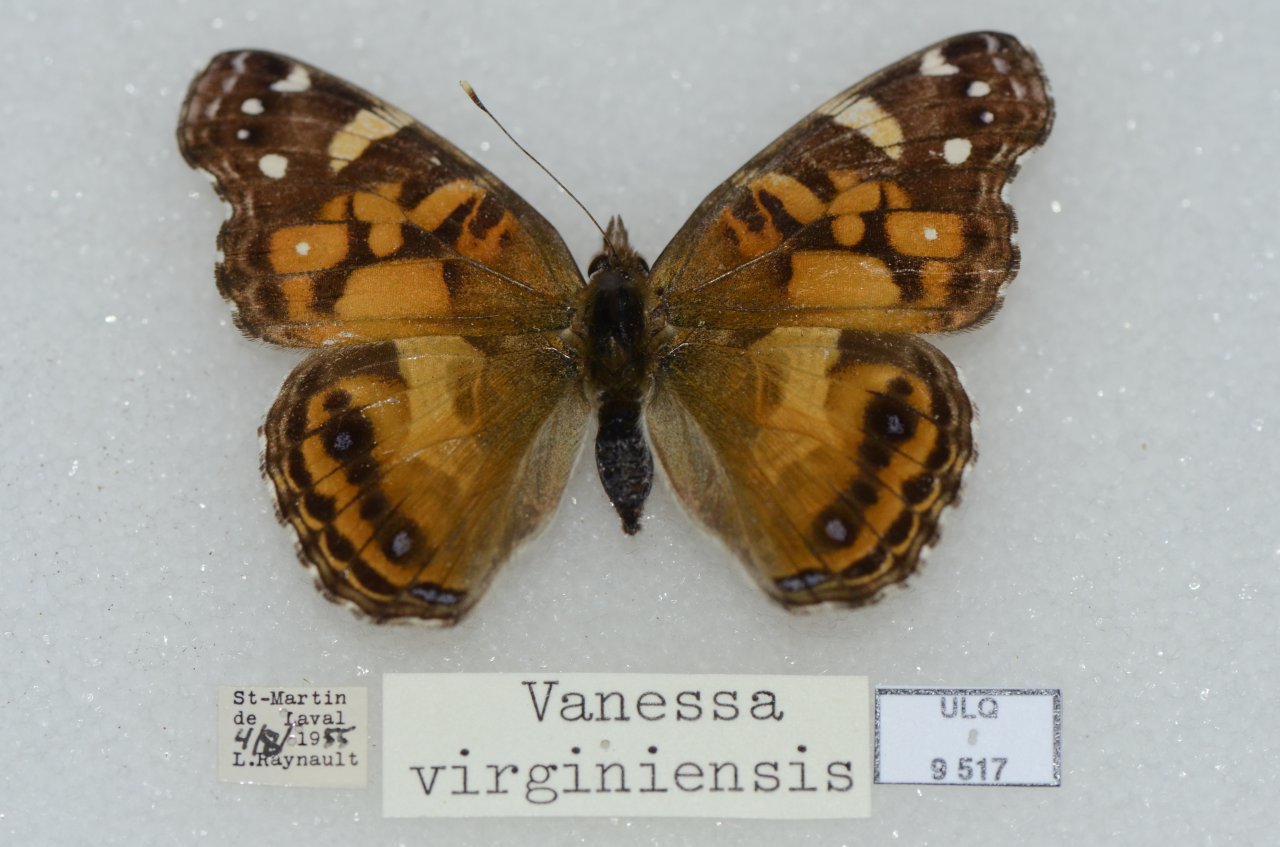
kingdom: Animalia
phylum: Arthropoda
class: Insecta
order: Lepidoptera
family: Nymphalidae
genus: Vanessa
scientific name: Vanessa virginiensis
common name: American Lady
